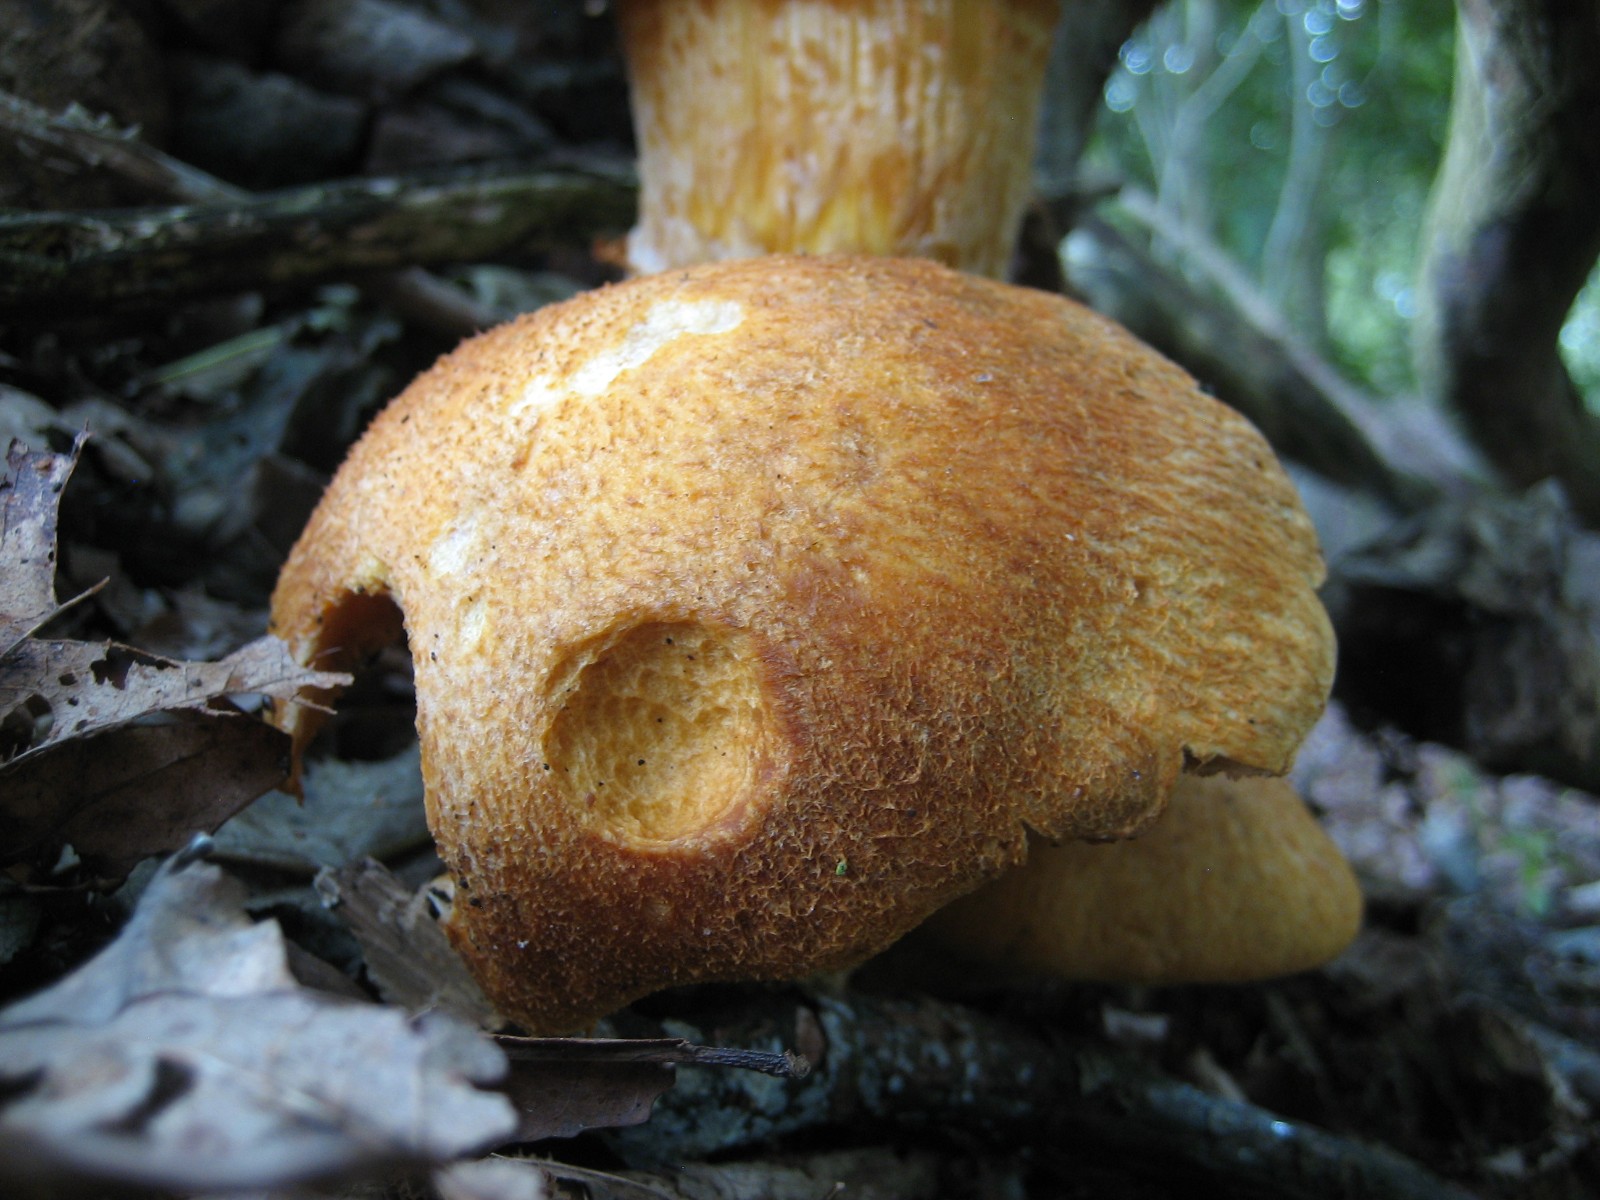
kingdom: Fungi
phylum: Basidiomycota
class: Agaricomycetes
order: Agaricales
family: Hymenogastraceae
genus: Gymnopilus
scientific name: Gymnopilus spectabilis
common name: fibret flammehat
